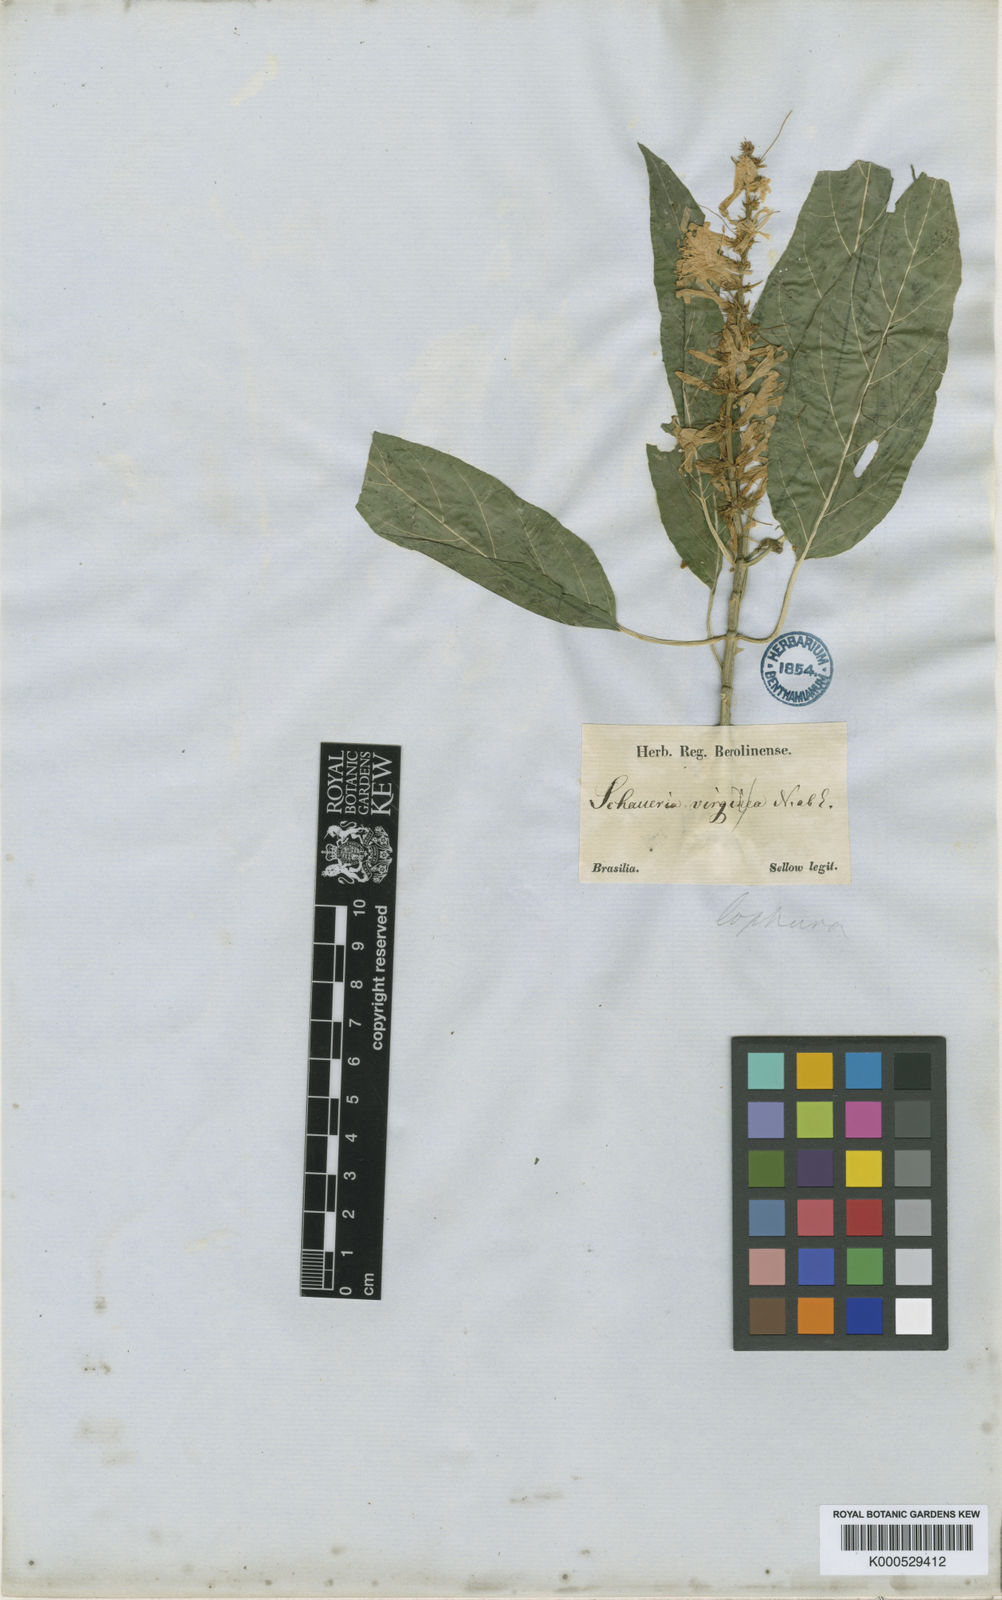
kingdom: Plantae
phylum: Tracheophyta
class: Magnoliopsida
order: Lamiales
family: Acanthaceae
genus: Schaueria
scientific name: Schaueria litoralis
